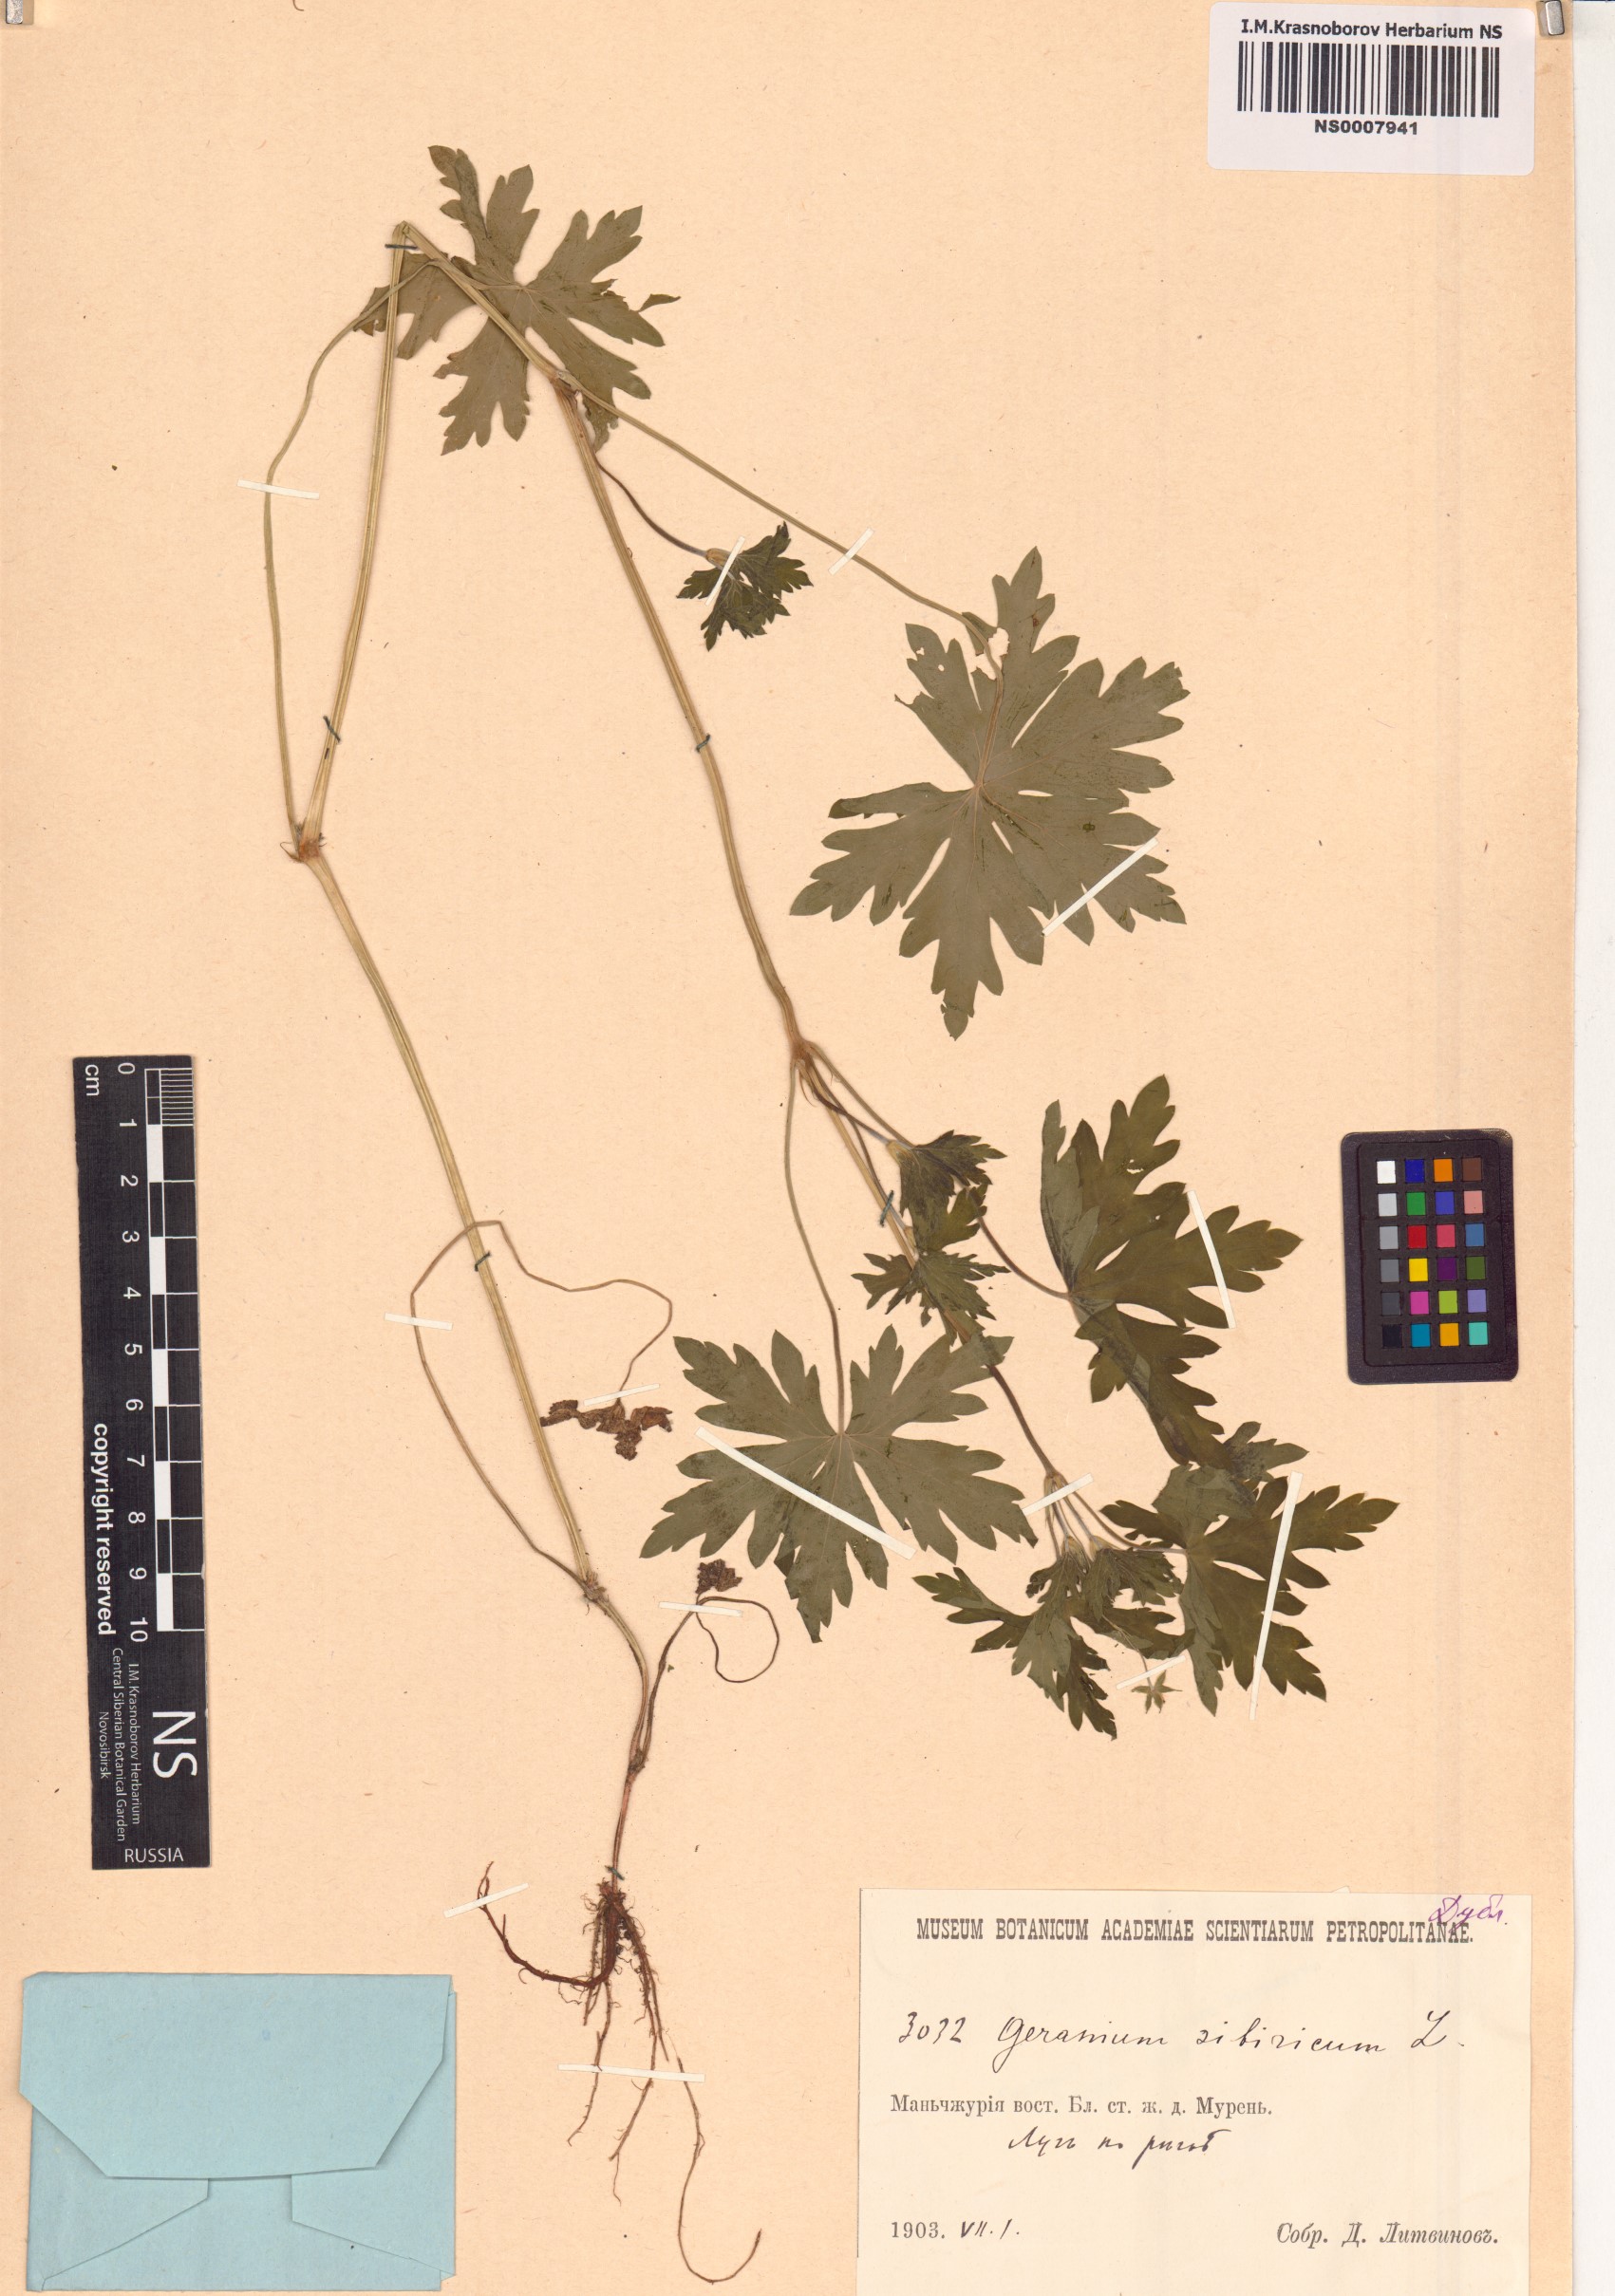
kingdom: Plantae
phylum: Tracheophyta
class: Magnoliopsida
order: Geraniales
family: Geraniaceae
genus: Geranium
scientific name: Geranium sibiricum
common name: Siberian crane's-bill
